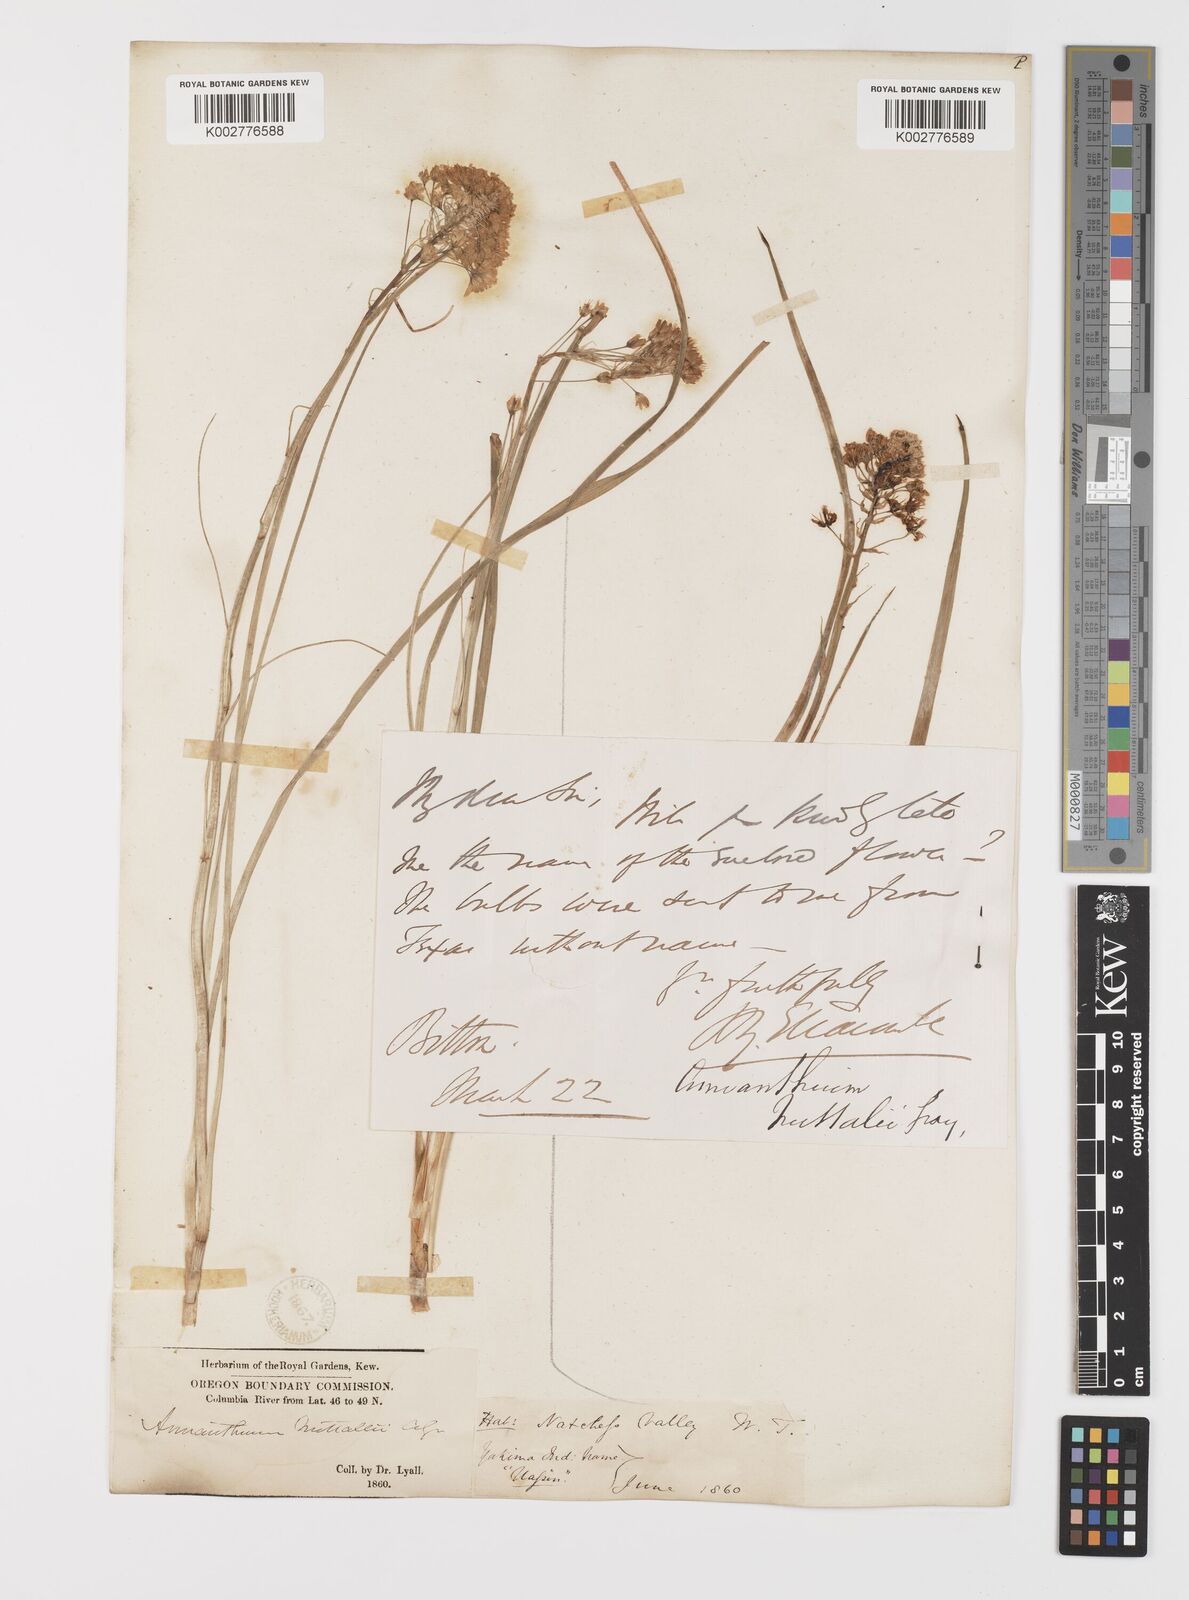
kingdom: Plantae
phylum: Tracheophyta
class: Liliopsida
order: Liliales
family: Melanthiaceae
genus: Toxicoscordion
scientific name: Toxicoscordion nuttallii
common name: Poison sego
